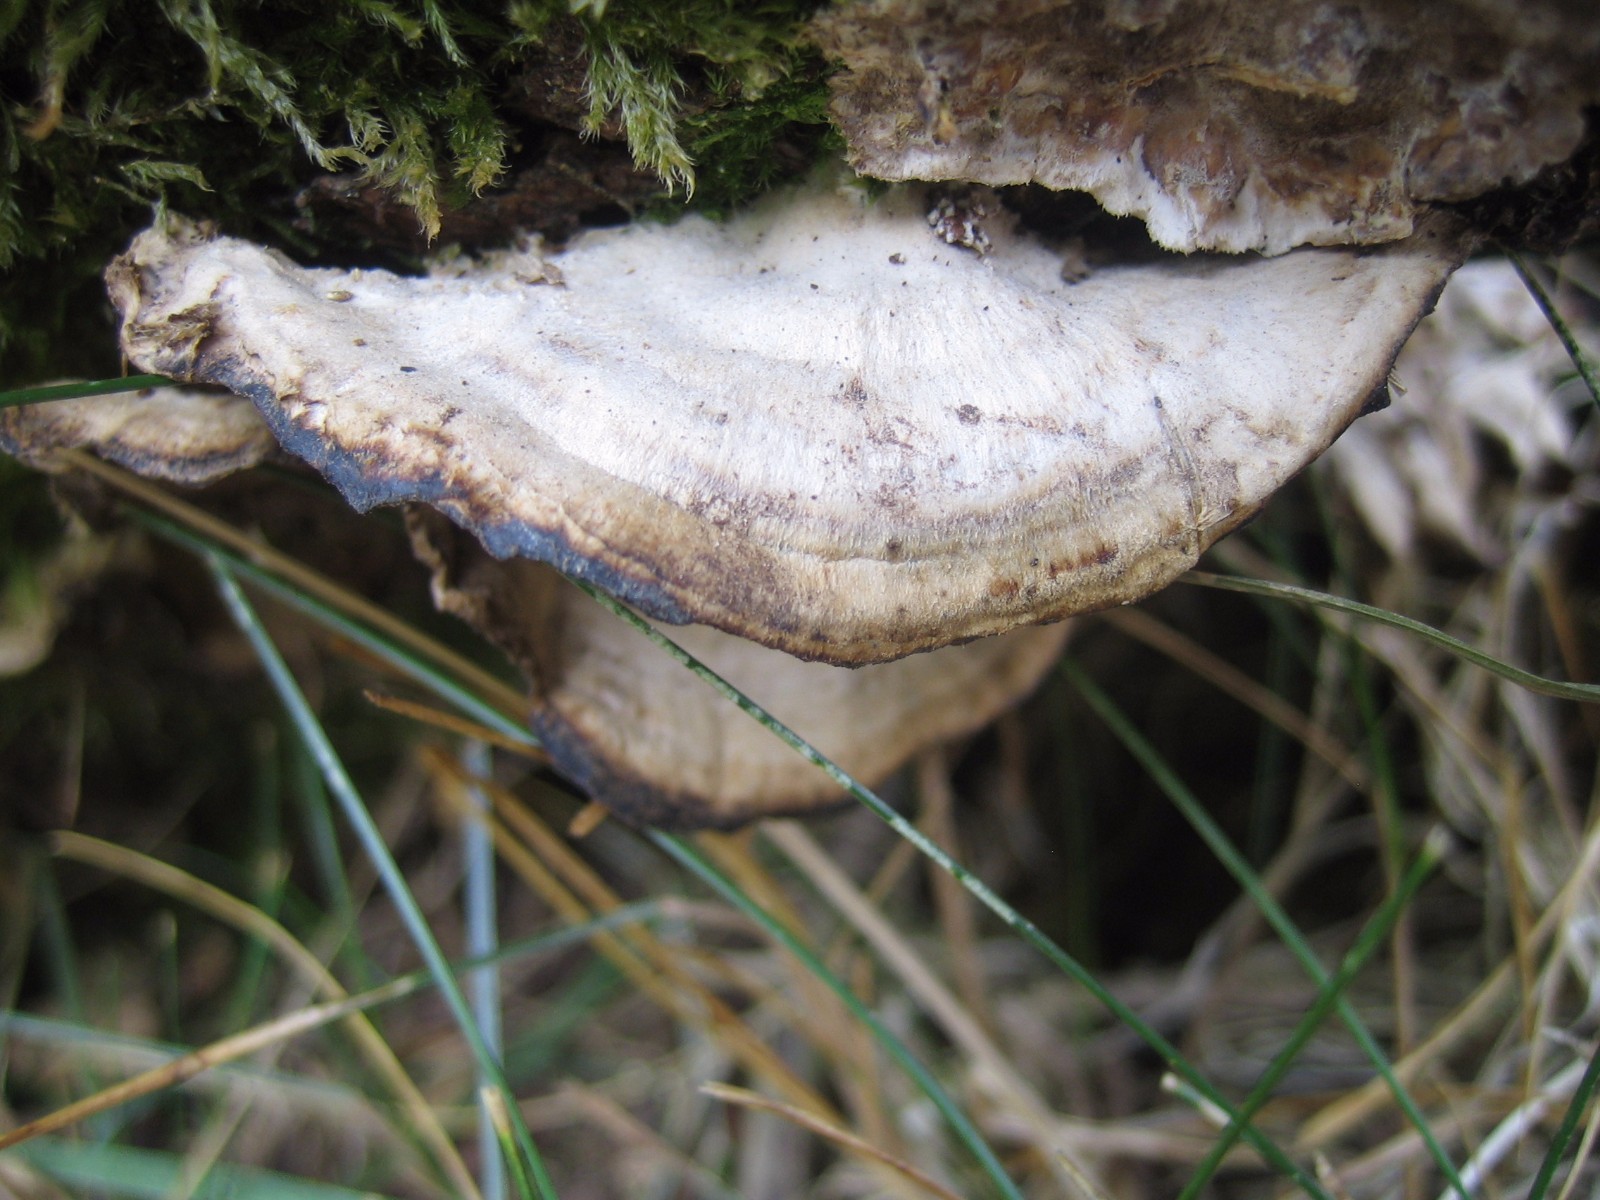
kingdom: Fungi
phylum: Basidiomycota
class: Agaricomycetes
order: Polyporales
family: Phanerochaetaceae
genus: Bjerkandera
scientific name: Bjerkandera adusta
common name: sveden sodporesvamp
